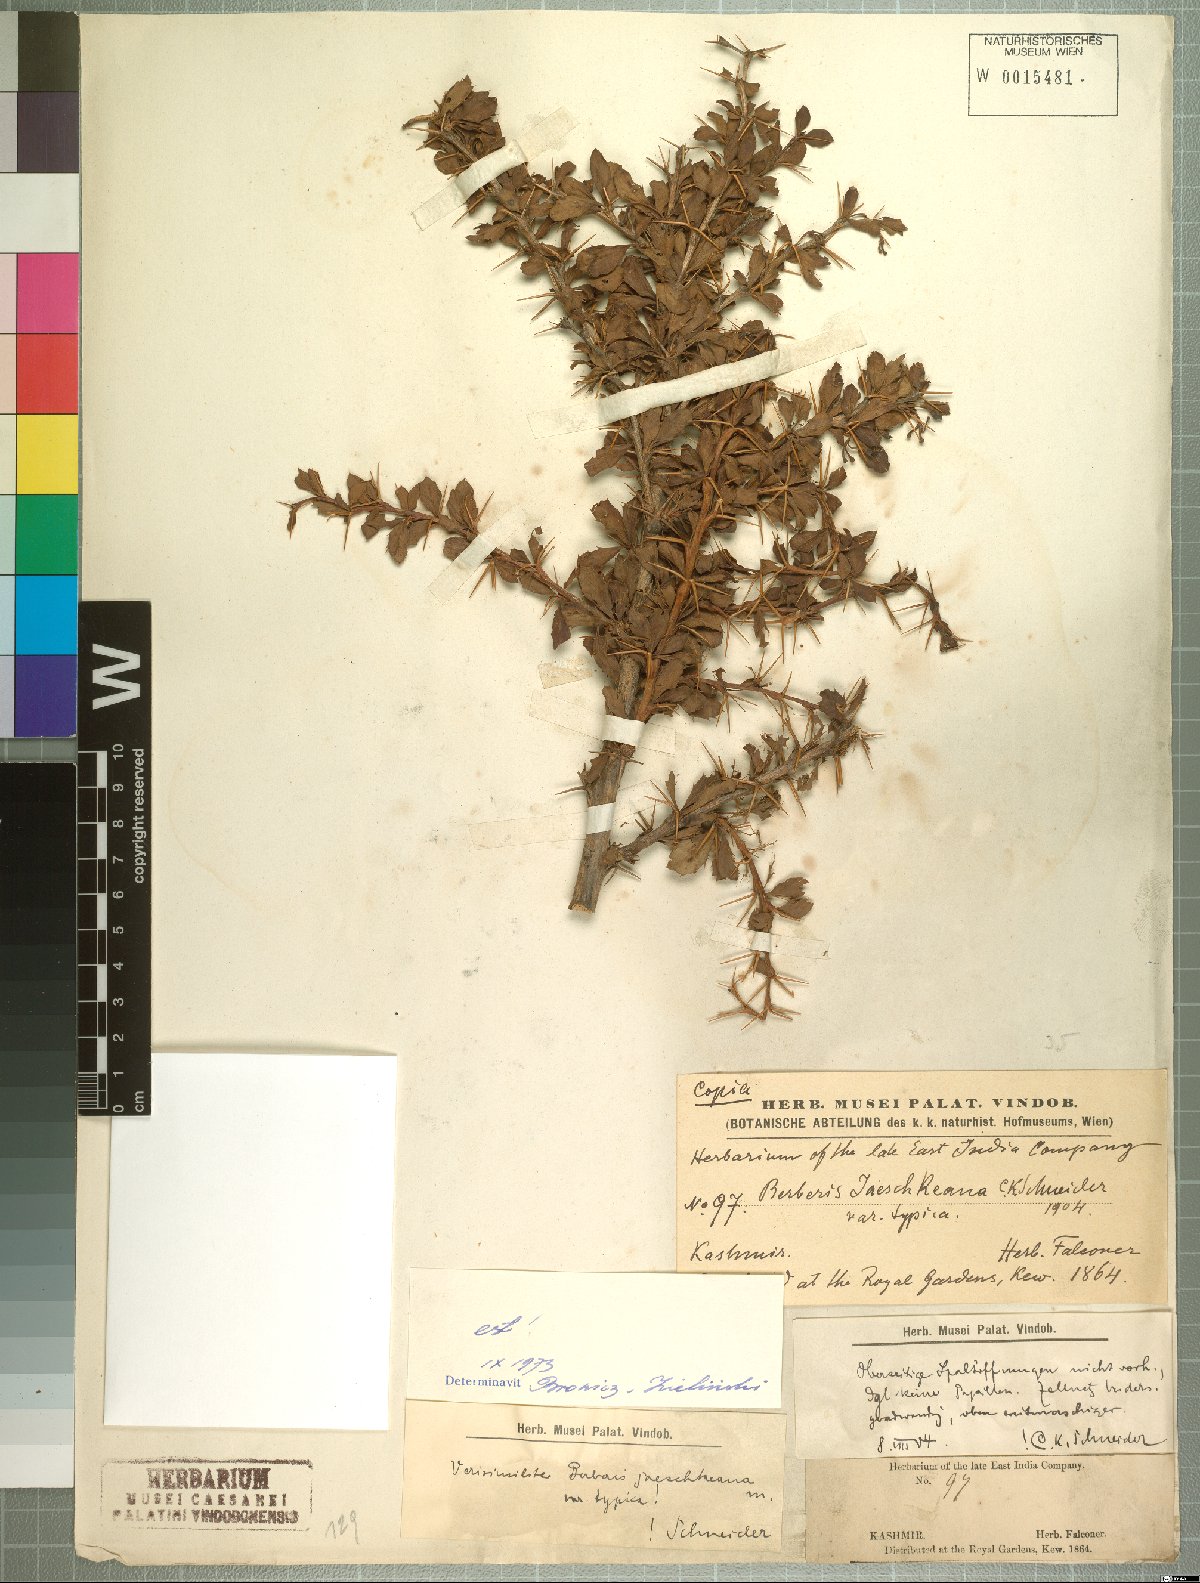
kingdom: Plantae
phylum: Tracheophyta
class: Magnoliopsida
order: Ranunculales
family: Berberidaceae
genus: Berberis
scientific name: Berberis jaeschkeana
